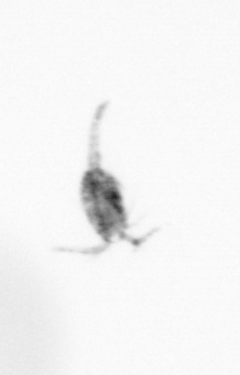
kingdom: Animalia
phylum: Arthropoda
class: Copepoda
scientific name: Copepoda
